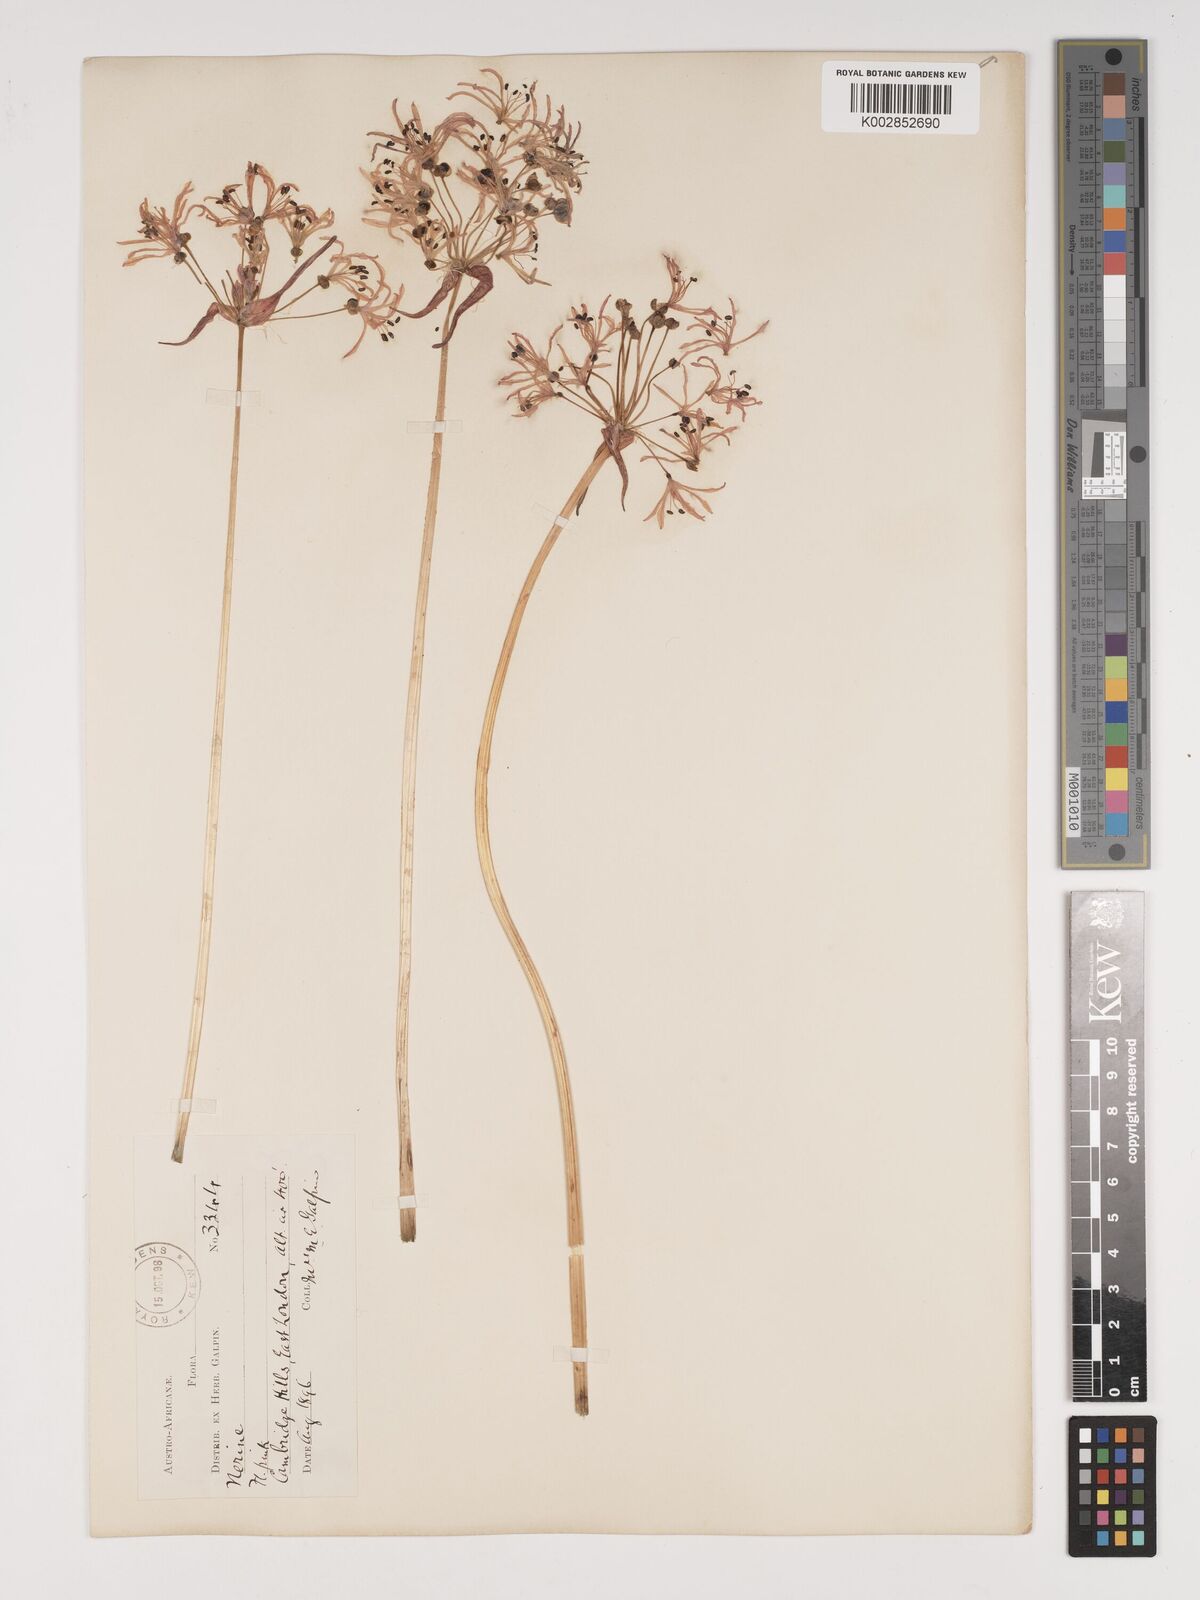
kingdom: Plantae
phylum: Tracheophyta
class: Liliopsida
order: Asparagales
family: Amaryllidaceae
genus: Nerine
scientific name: Nerine undulata
